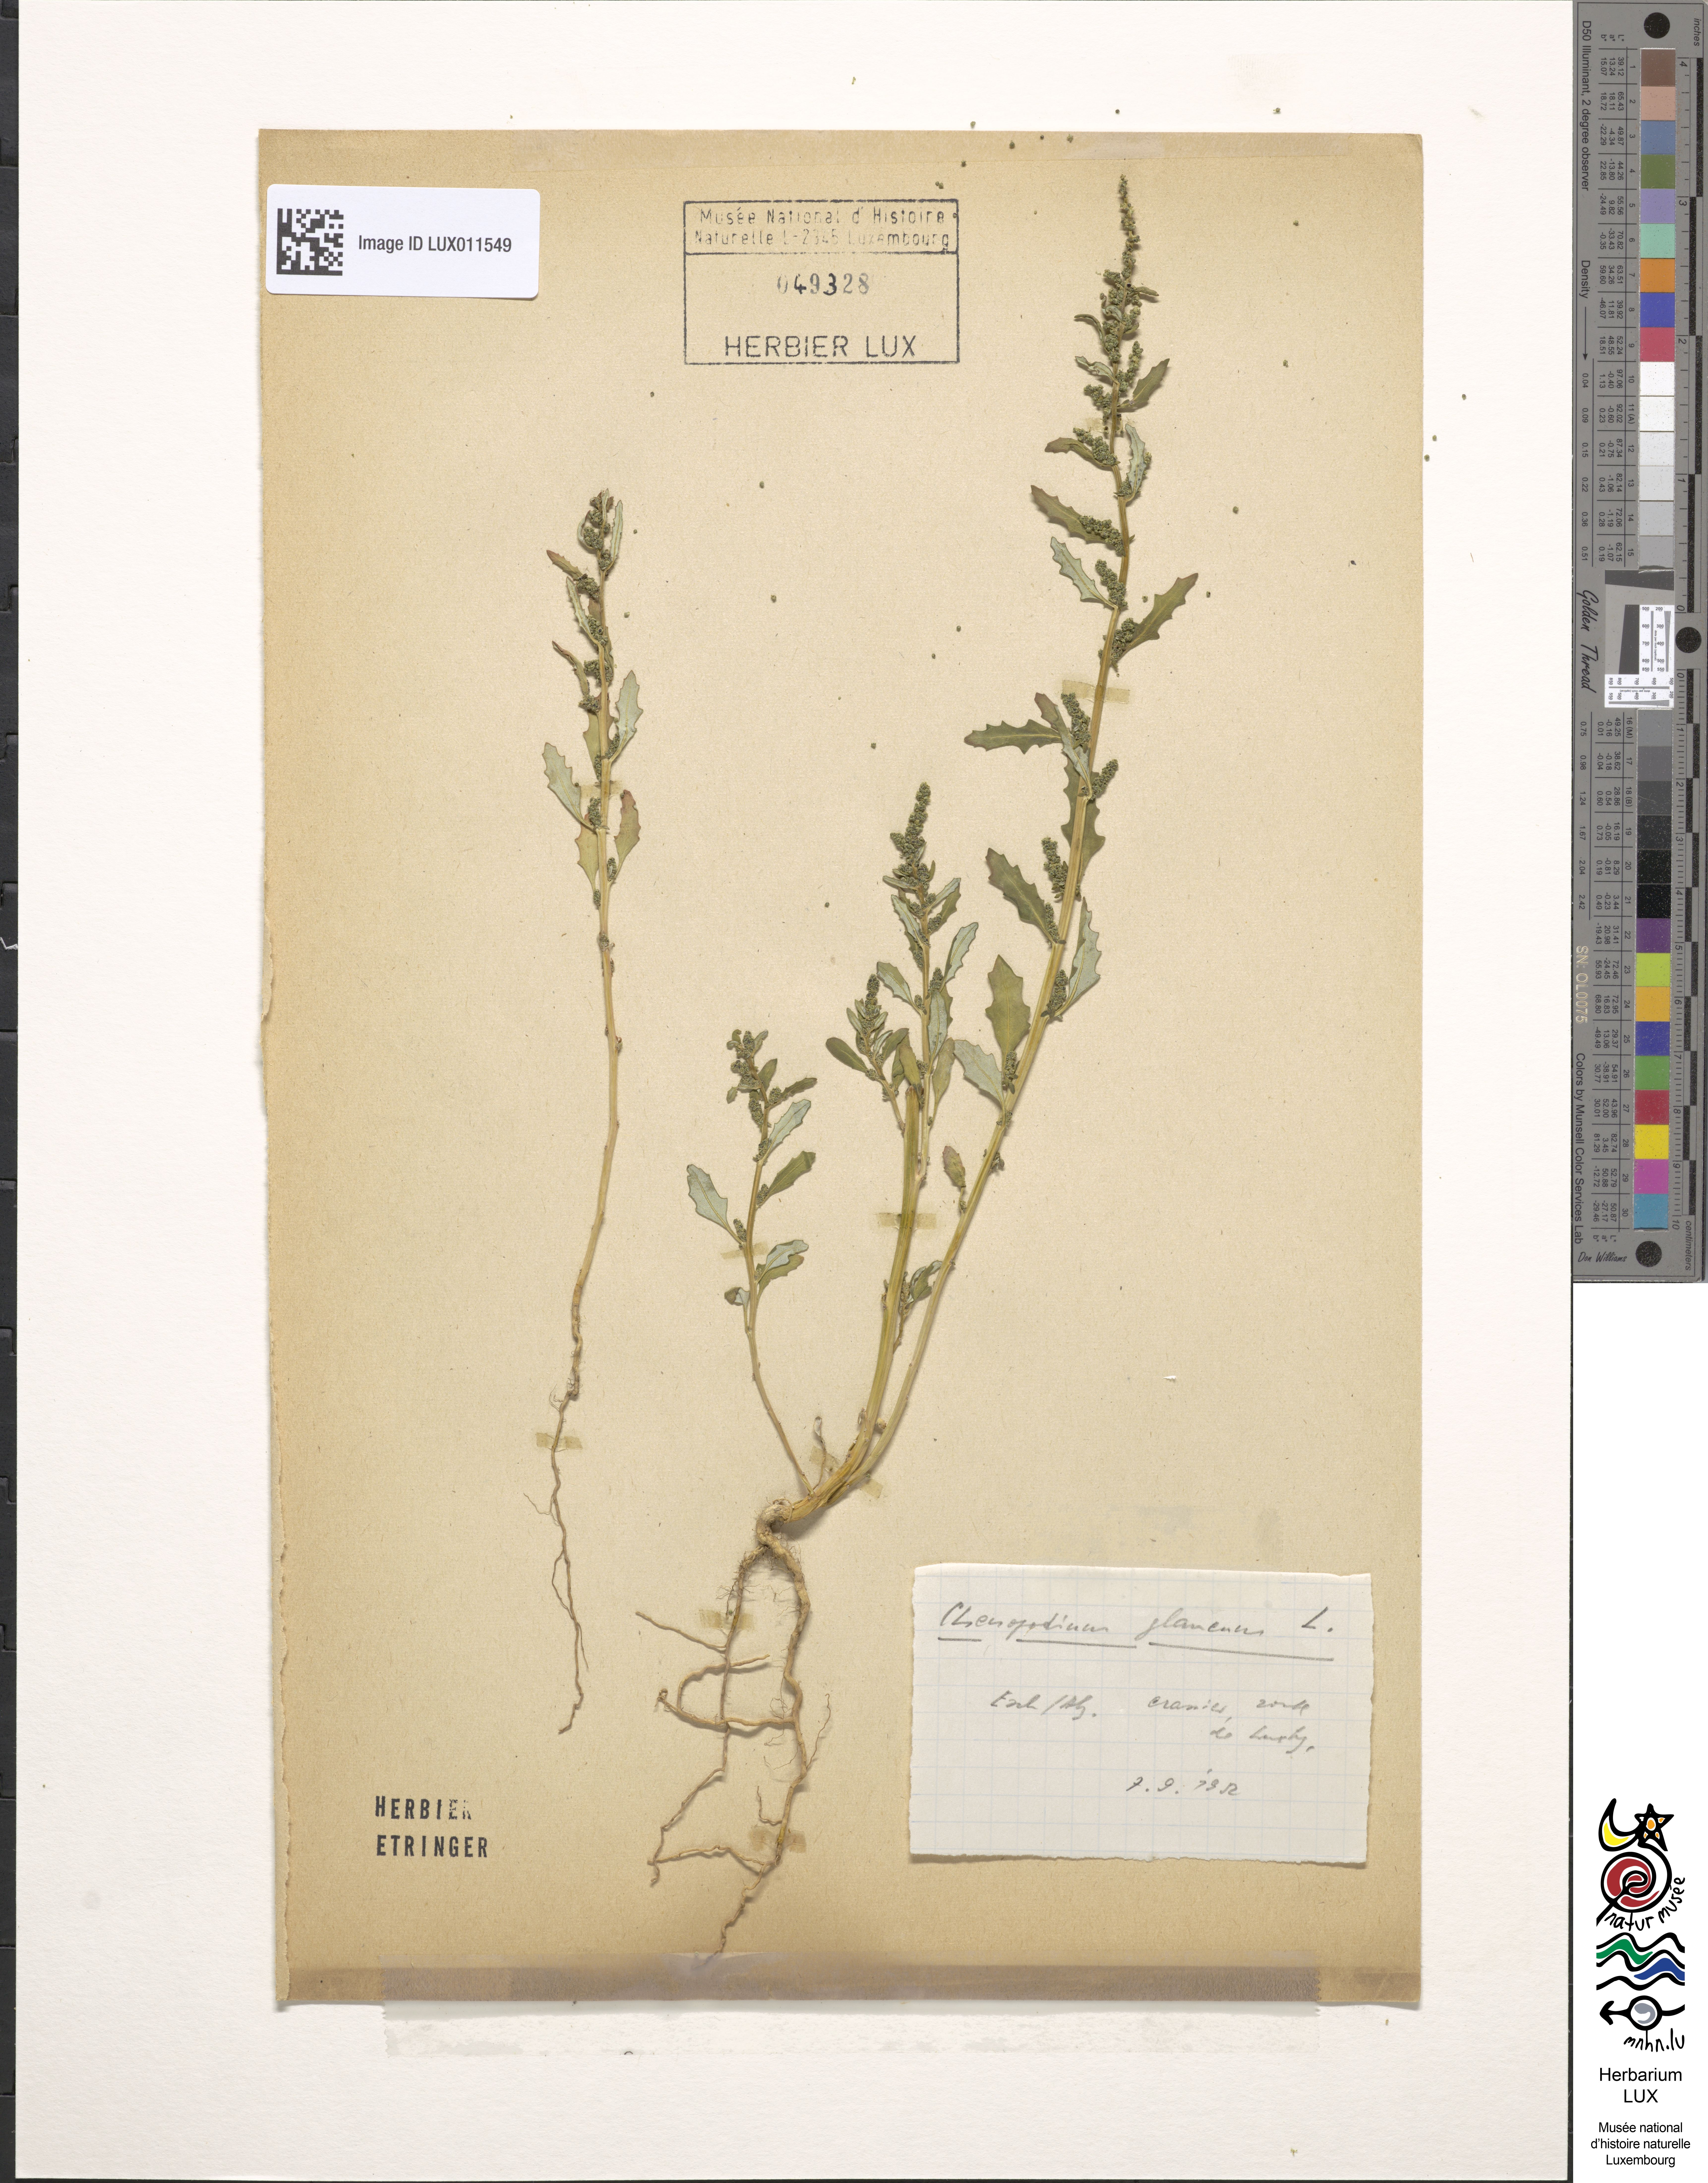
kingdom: Plantae
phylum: Tracheophyta
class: Magnoliopsida
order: Caryophyllales
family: Amaranthaceae
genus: Oxybasis
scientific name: Oxybasis glauca
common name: Glaucous goosefoot
